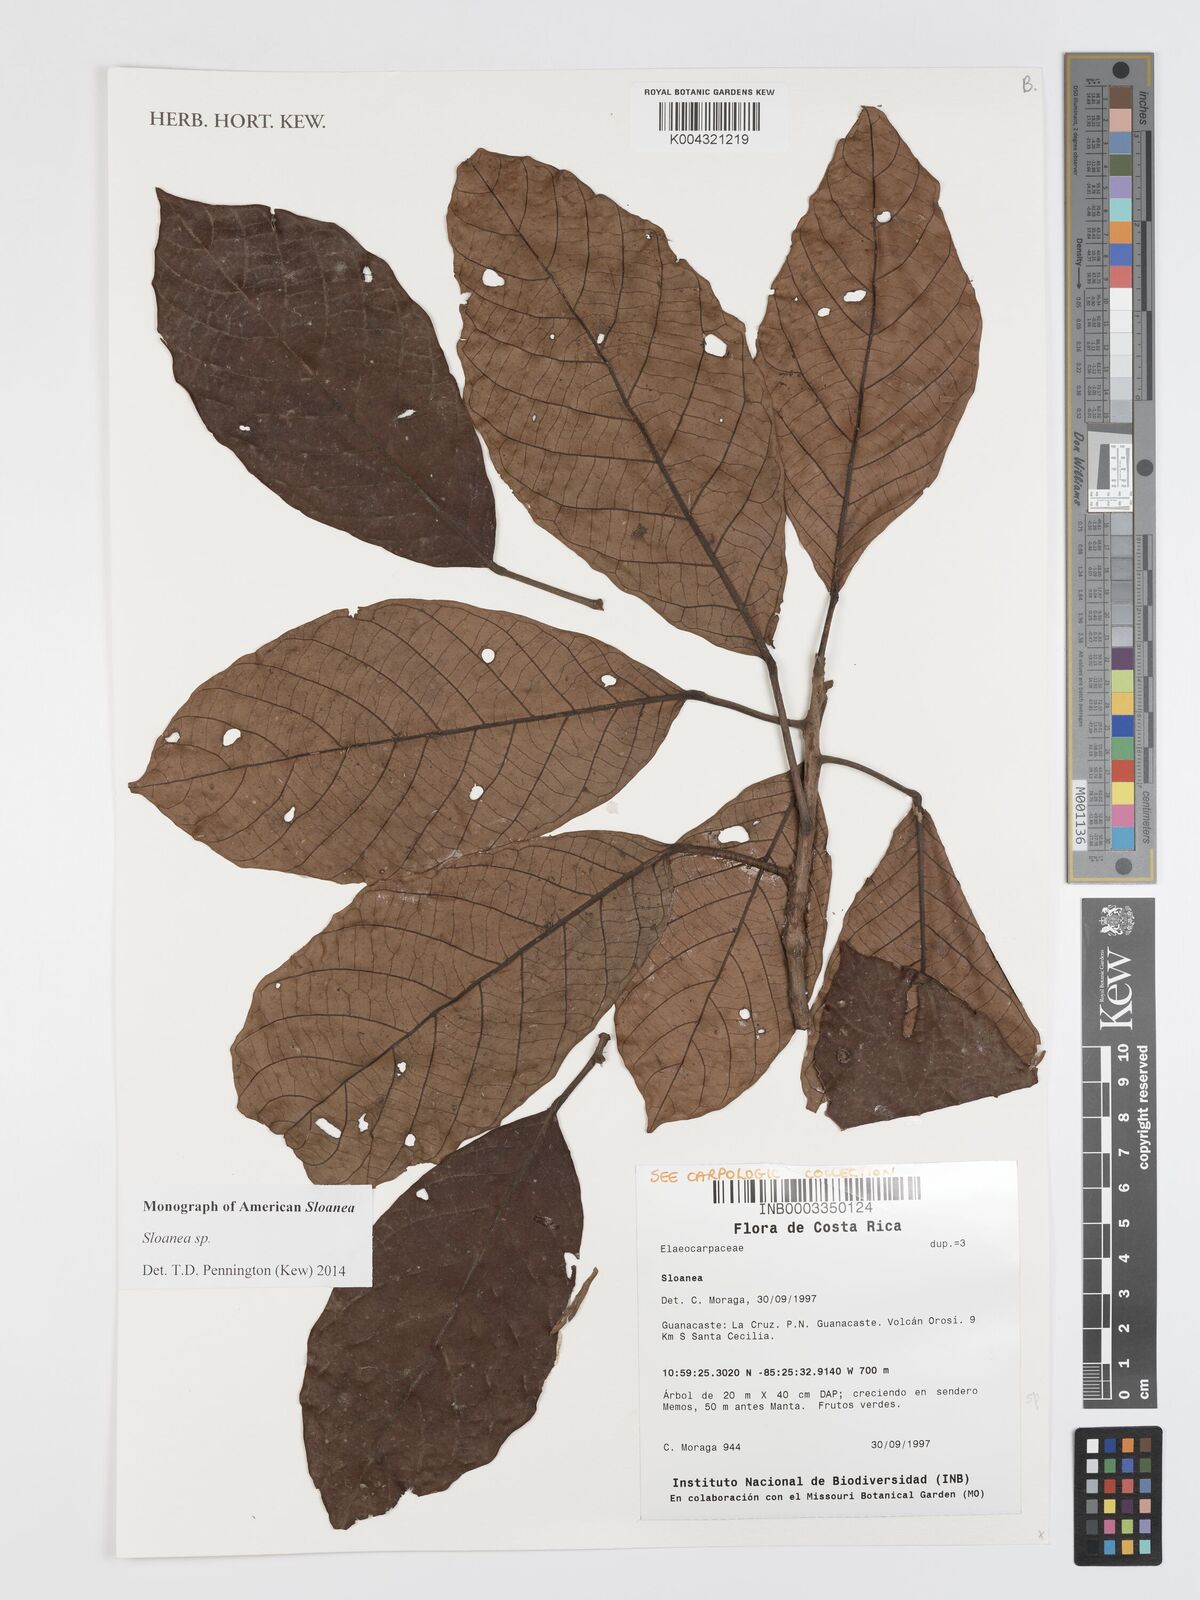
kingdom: Plantae
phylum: Tracheophyta
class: Magnoliopsida
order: Oxalidales
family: Elaeocarpaceae
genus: Sloanea
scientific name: Sloanea
